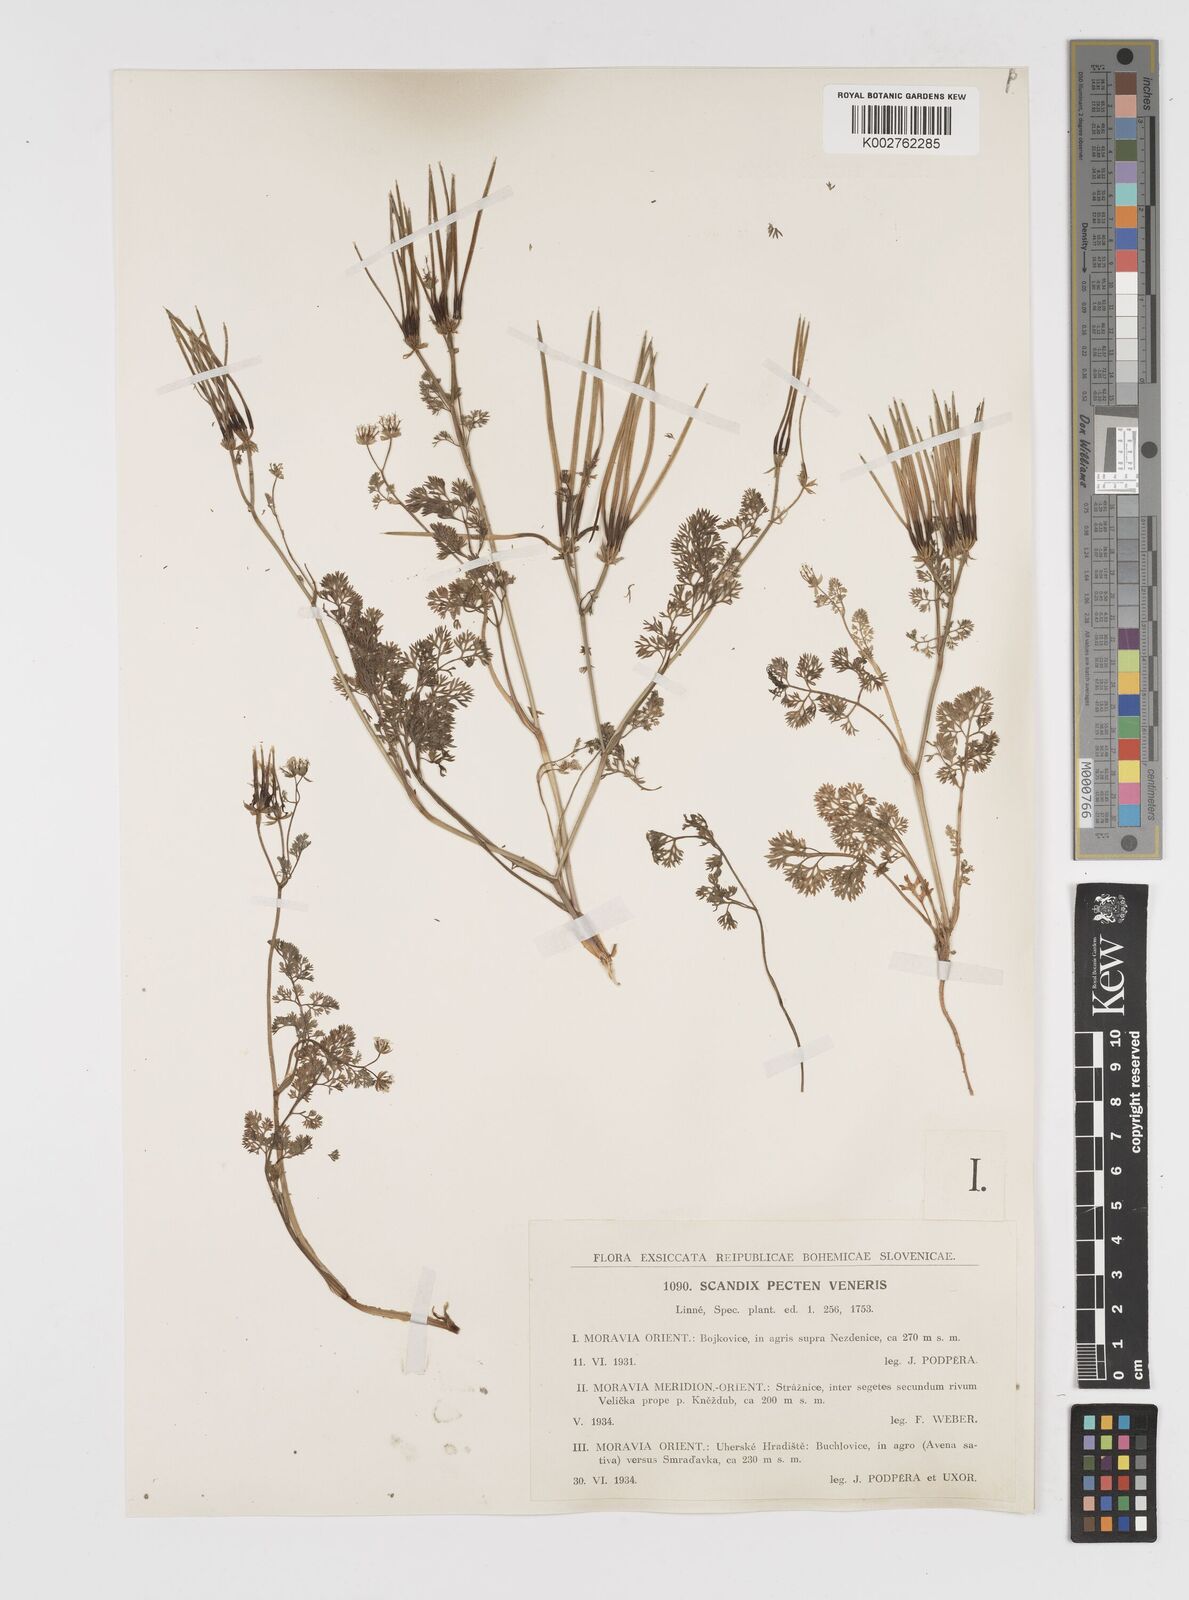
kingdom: Plantae
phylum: Tracheophyta
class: Magnoliopsida
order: Apiales
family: Apiaceae
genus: Scandix
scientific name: Scandix pecten-veneris
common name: Shepherd's-needle
